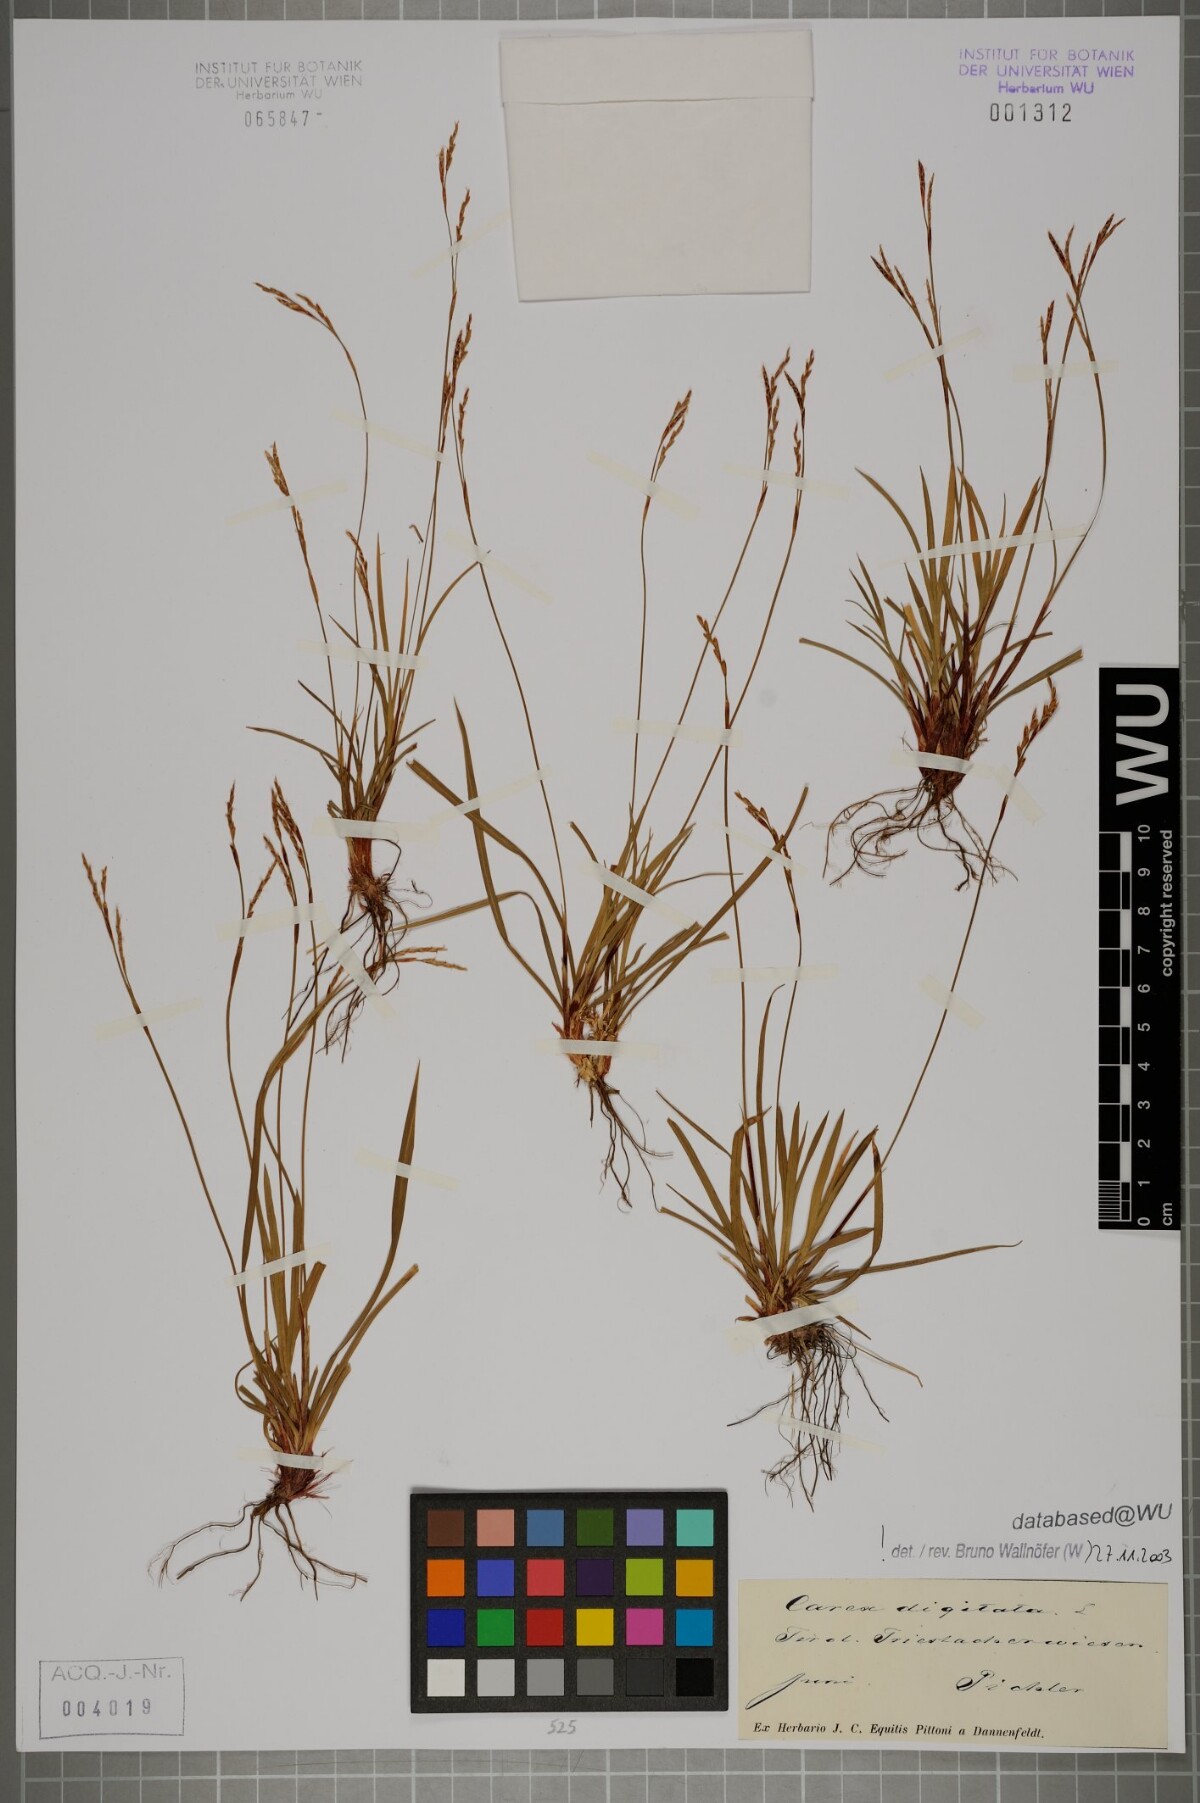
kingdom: Plantae
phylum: Tracheophyta
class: Liliopsida
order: Poales
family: Cyperaceae
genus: Carex
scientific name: Carex digitata
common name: Fingered sedge
